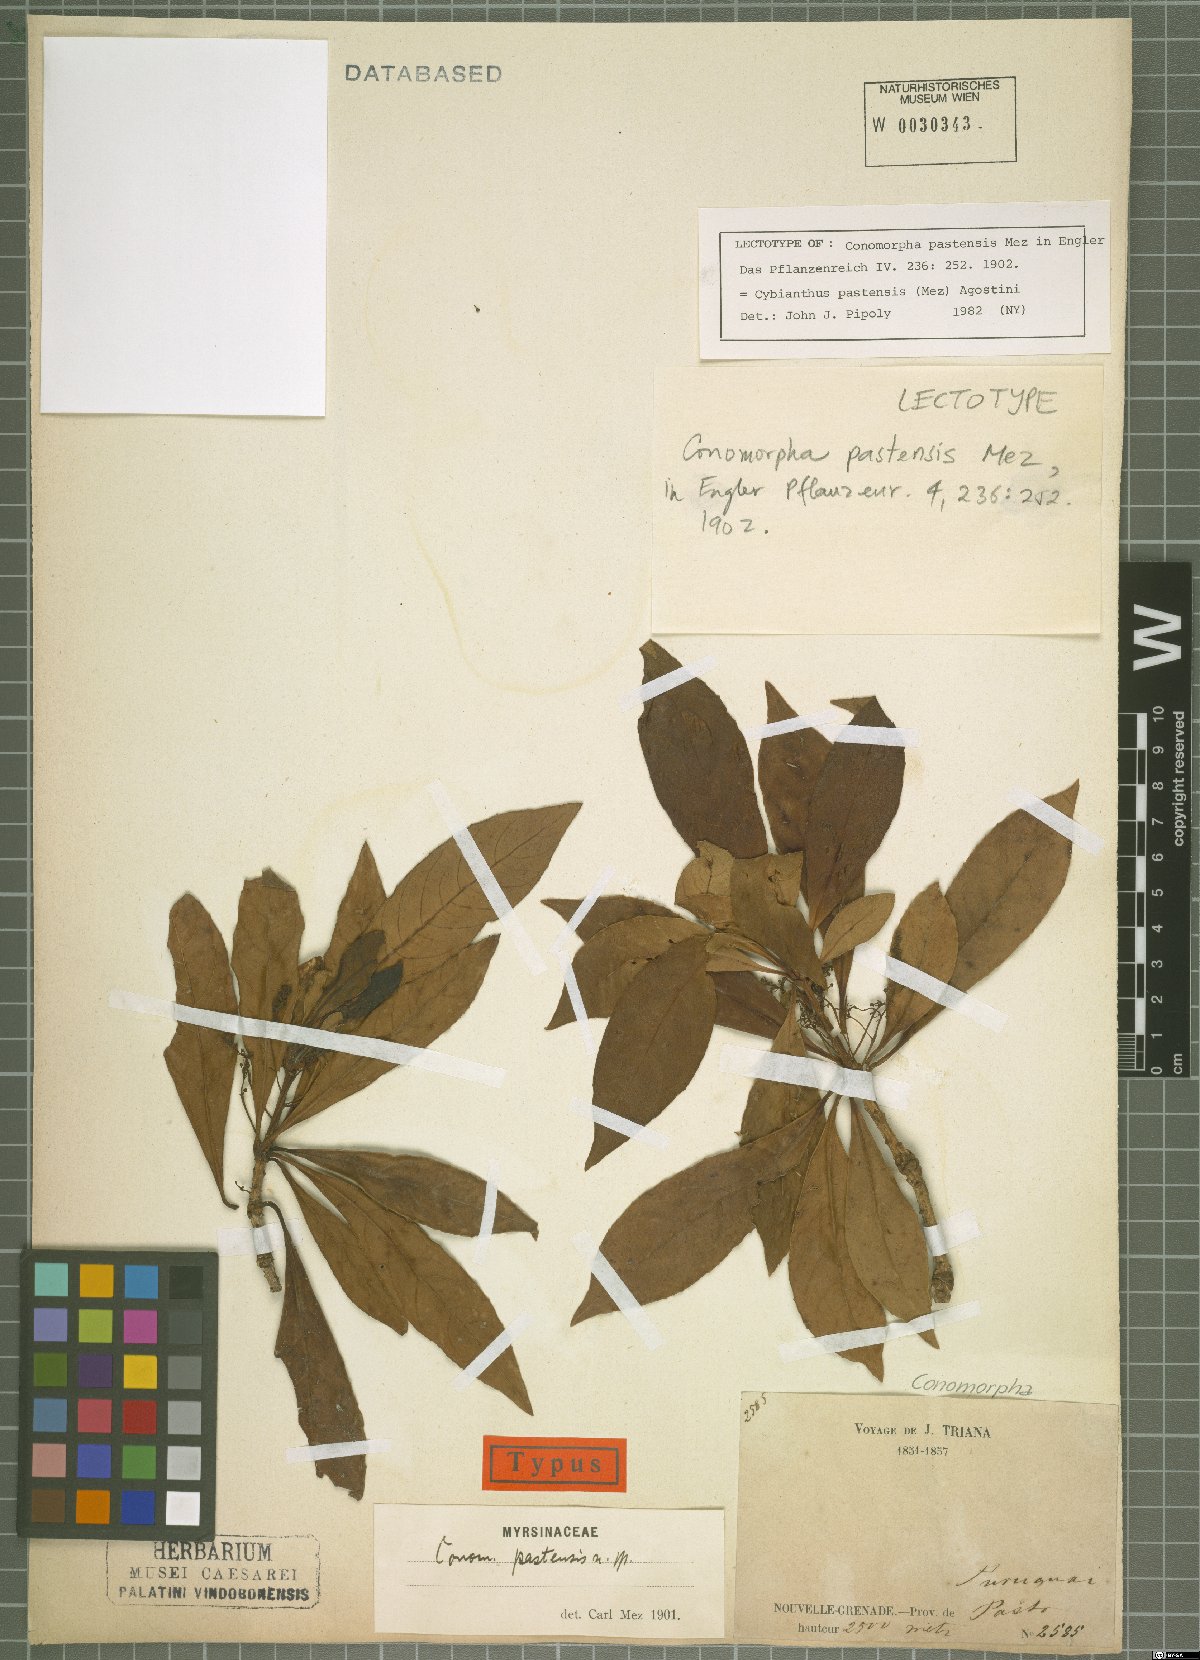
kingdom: Plantae
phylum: Tracheophyta
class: Magnoliopsida
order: Ericales
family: Primulaceae
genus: Cybianthus
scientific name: Cybianthus pastensis
